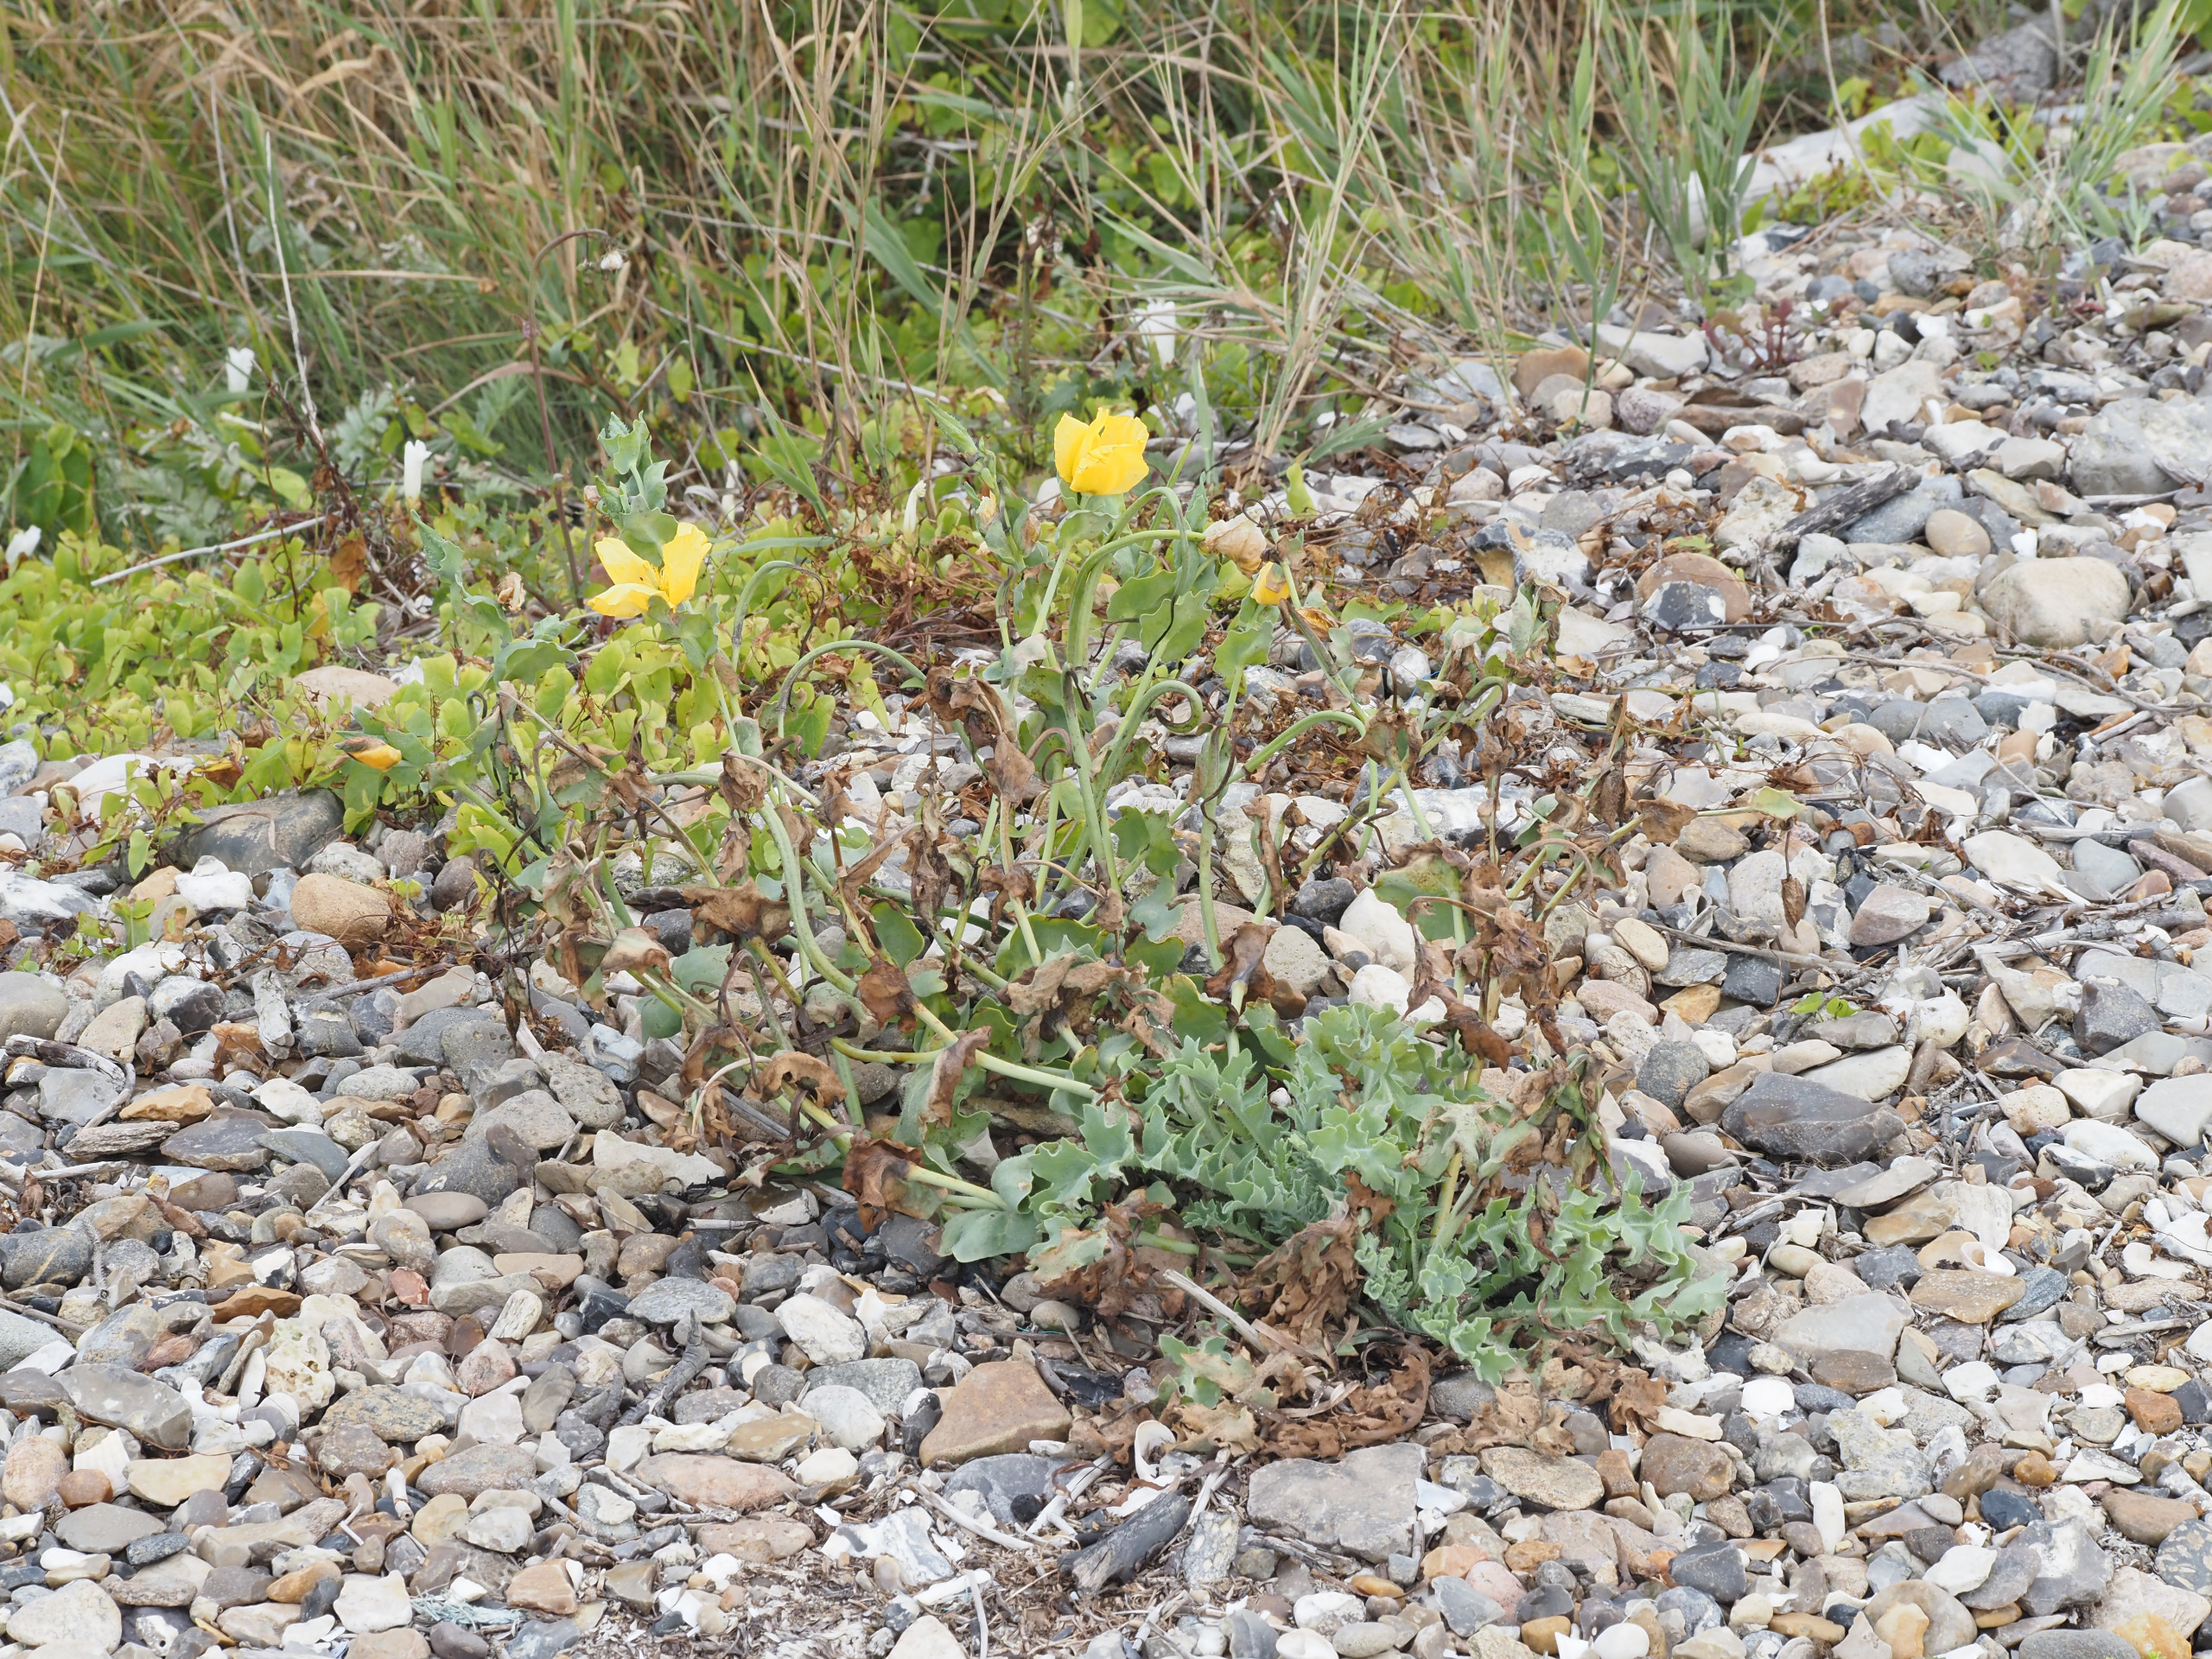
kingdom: Plantae
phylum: Tracheophyta
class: Magnoliopsida
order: Ranunculales
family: Papaveraceae
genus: Glaucium
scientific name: Glaucium flavum
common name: Hornskulpe
